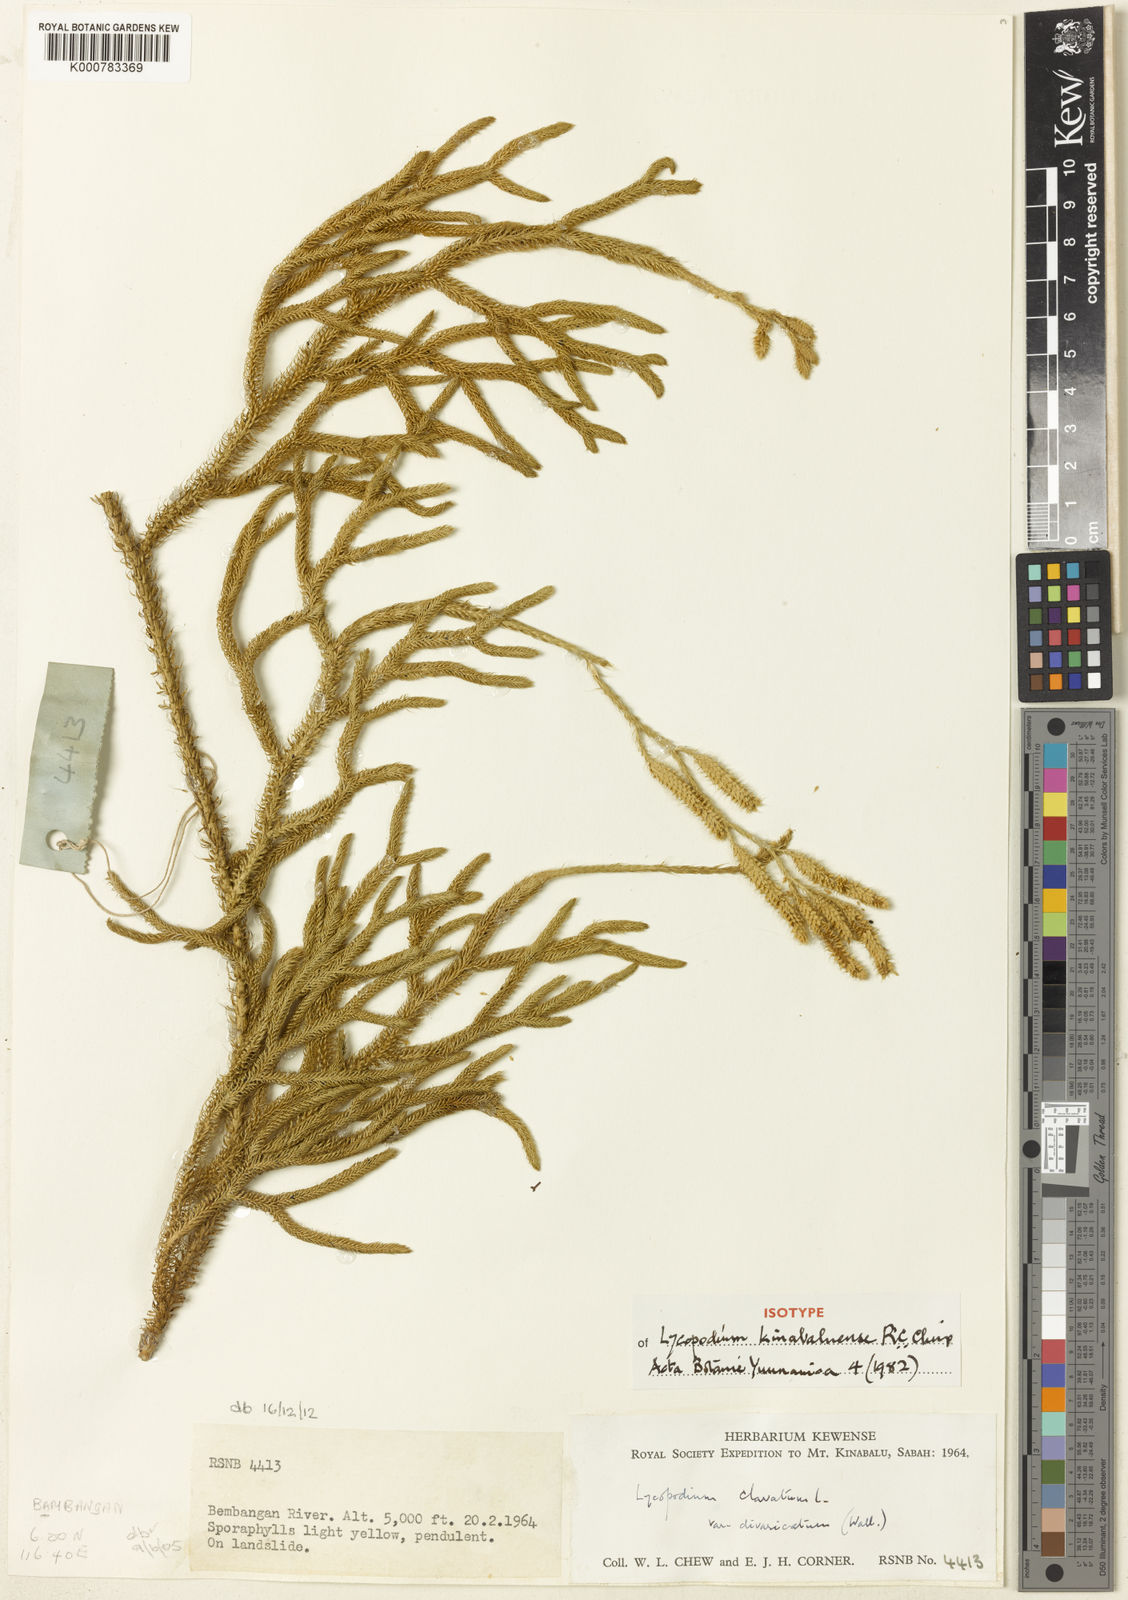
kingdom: Plantae
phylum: Tracheophyta
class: Lycopodiopsida
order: Lycopodiales
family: Lycopodiaceae
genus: Diphasiastrum
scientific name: Diphasiastrum complanatum
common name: Northern running-pine
